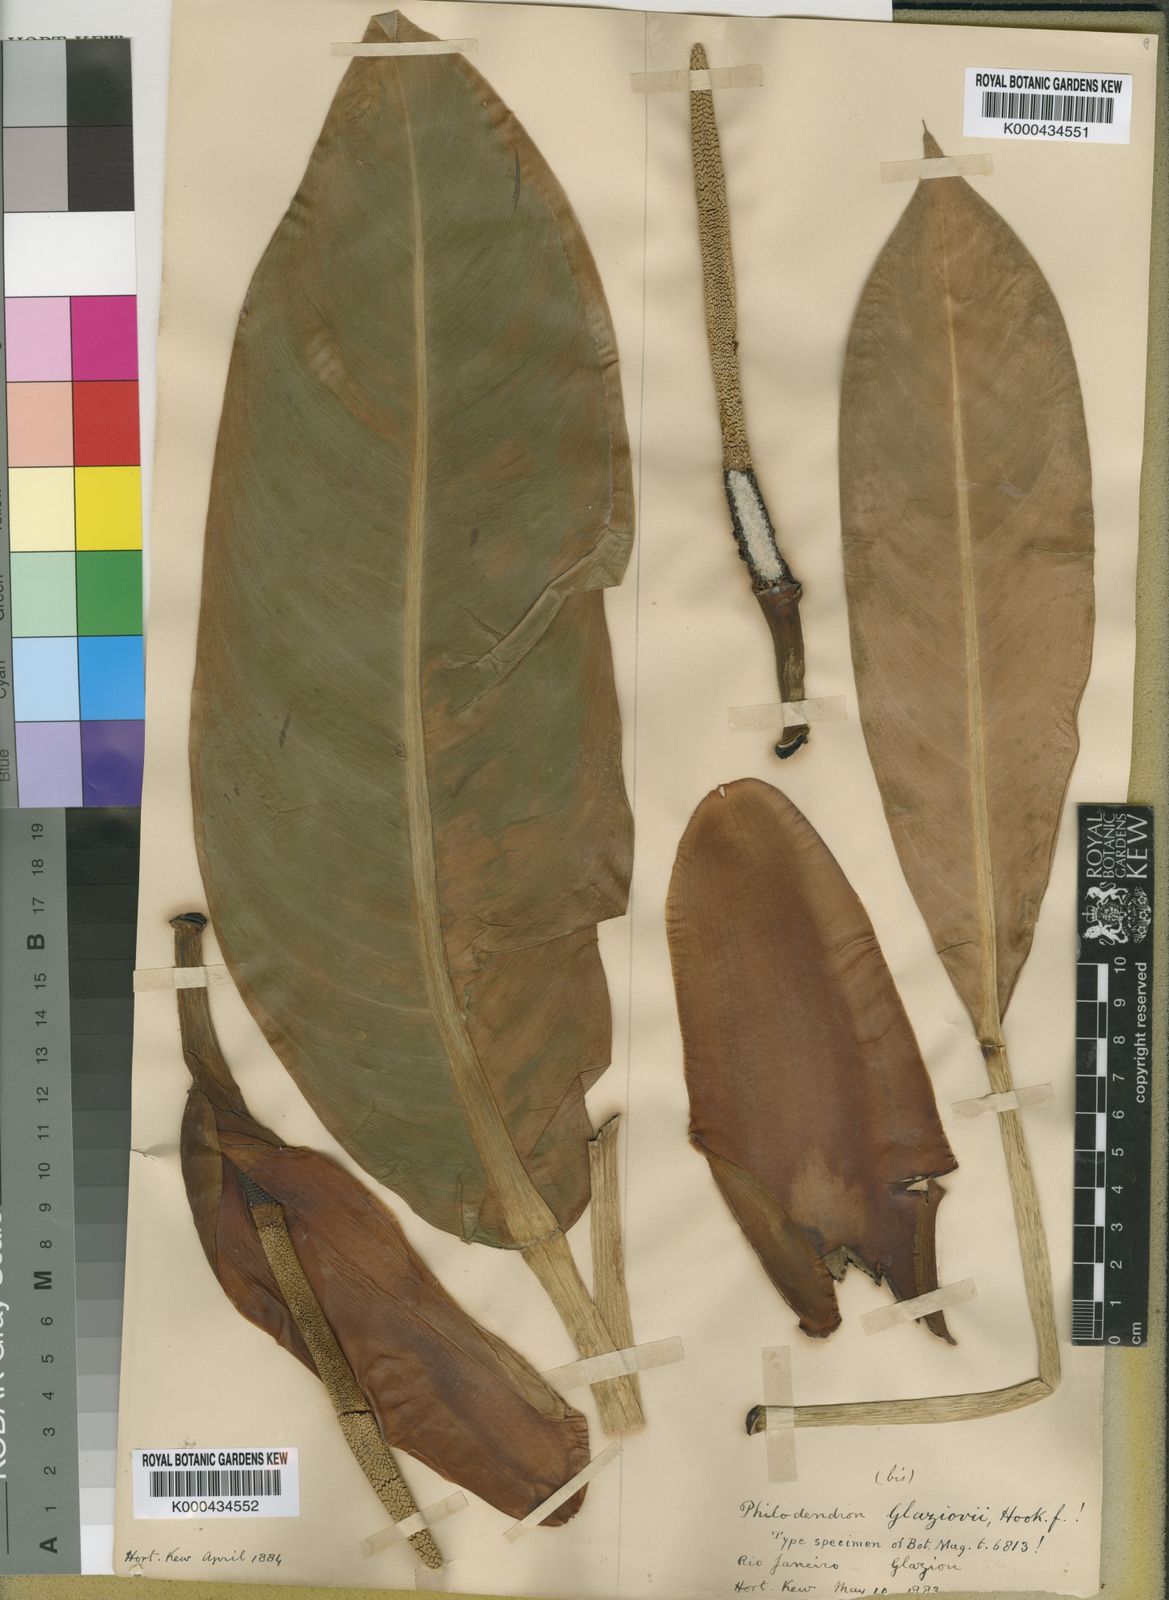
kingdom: Plantae
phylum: Tracheophyta
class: Liliopsida
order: Alismatales
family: Araceae
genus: Philodendron
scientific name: Philodendron glaziovii
